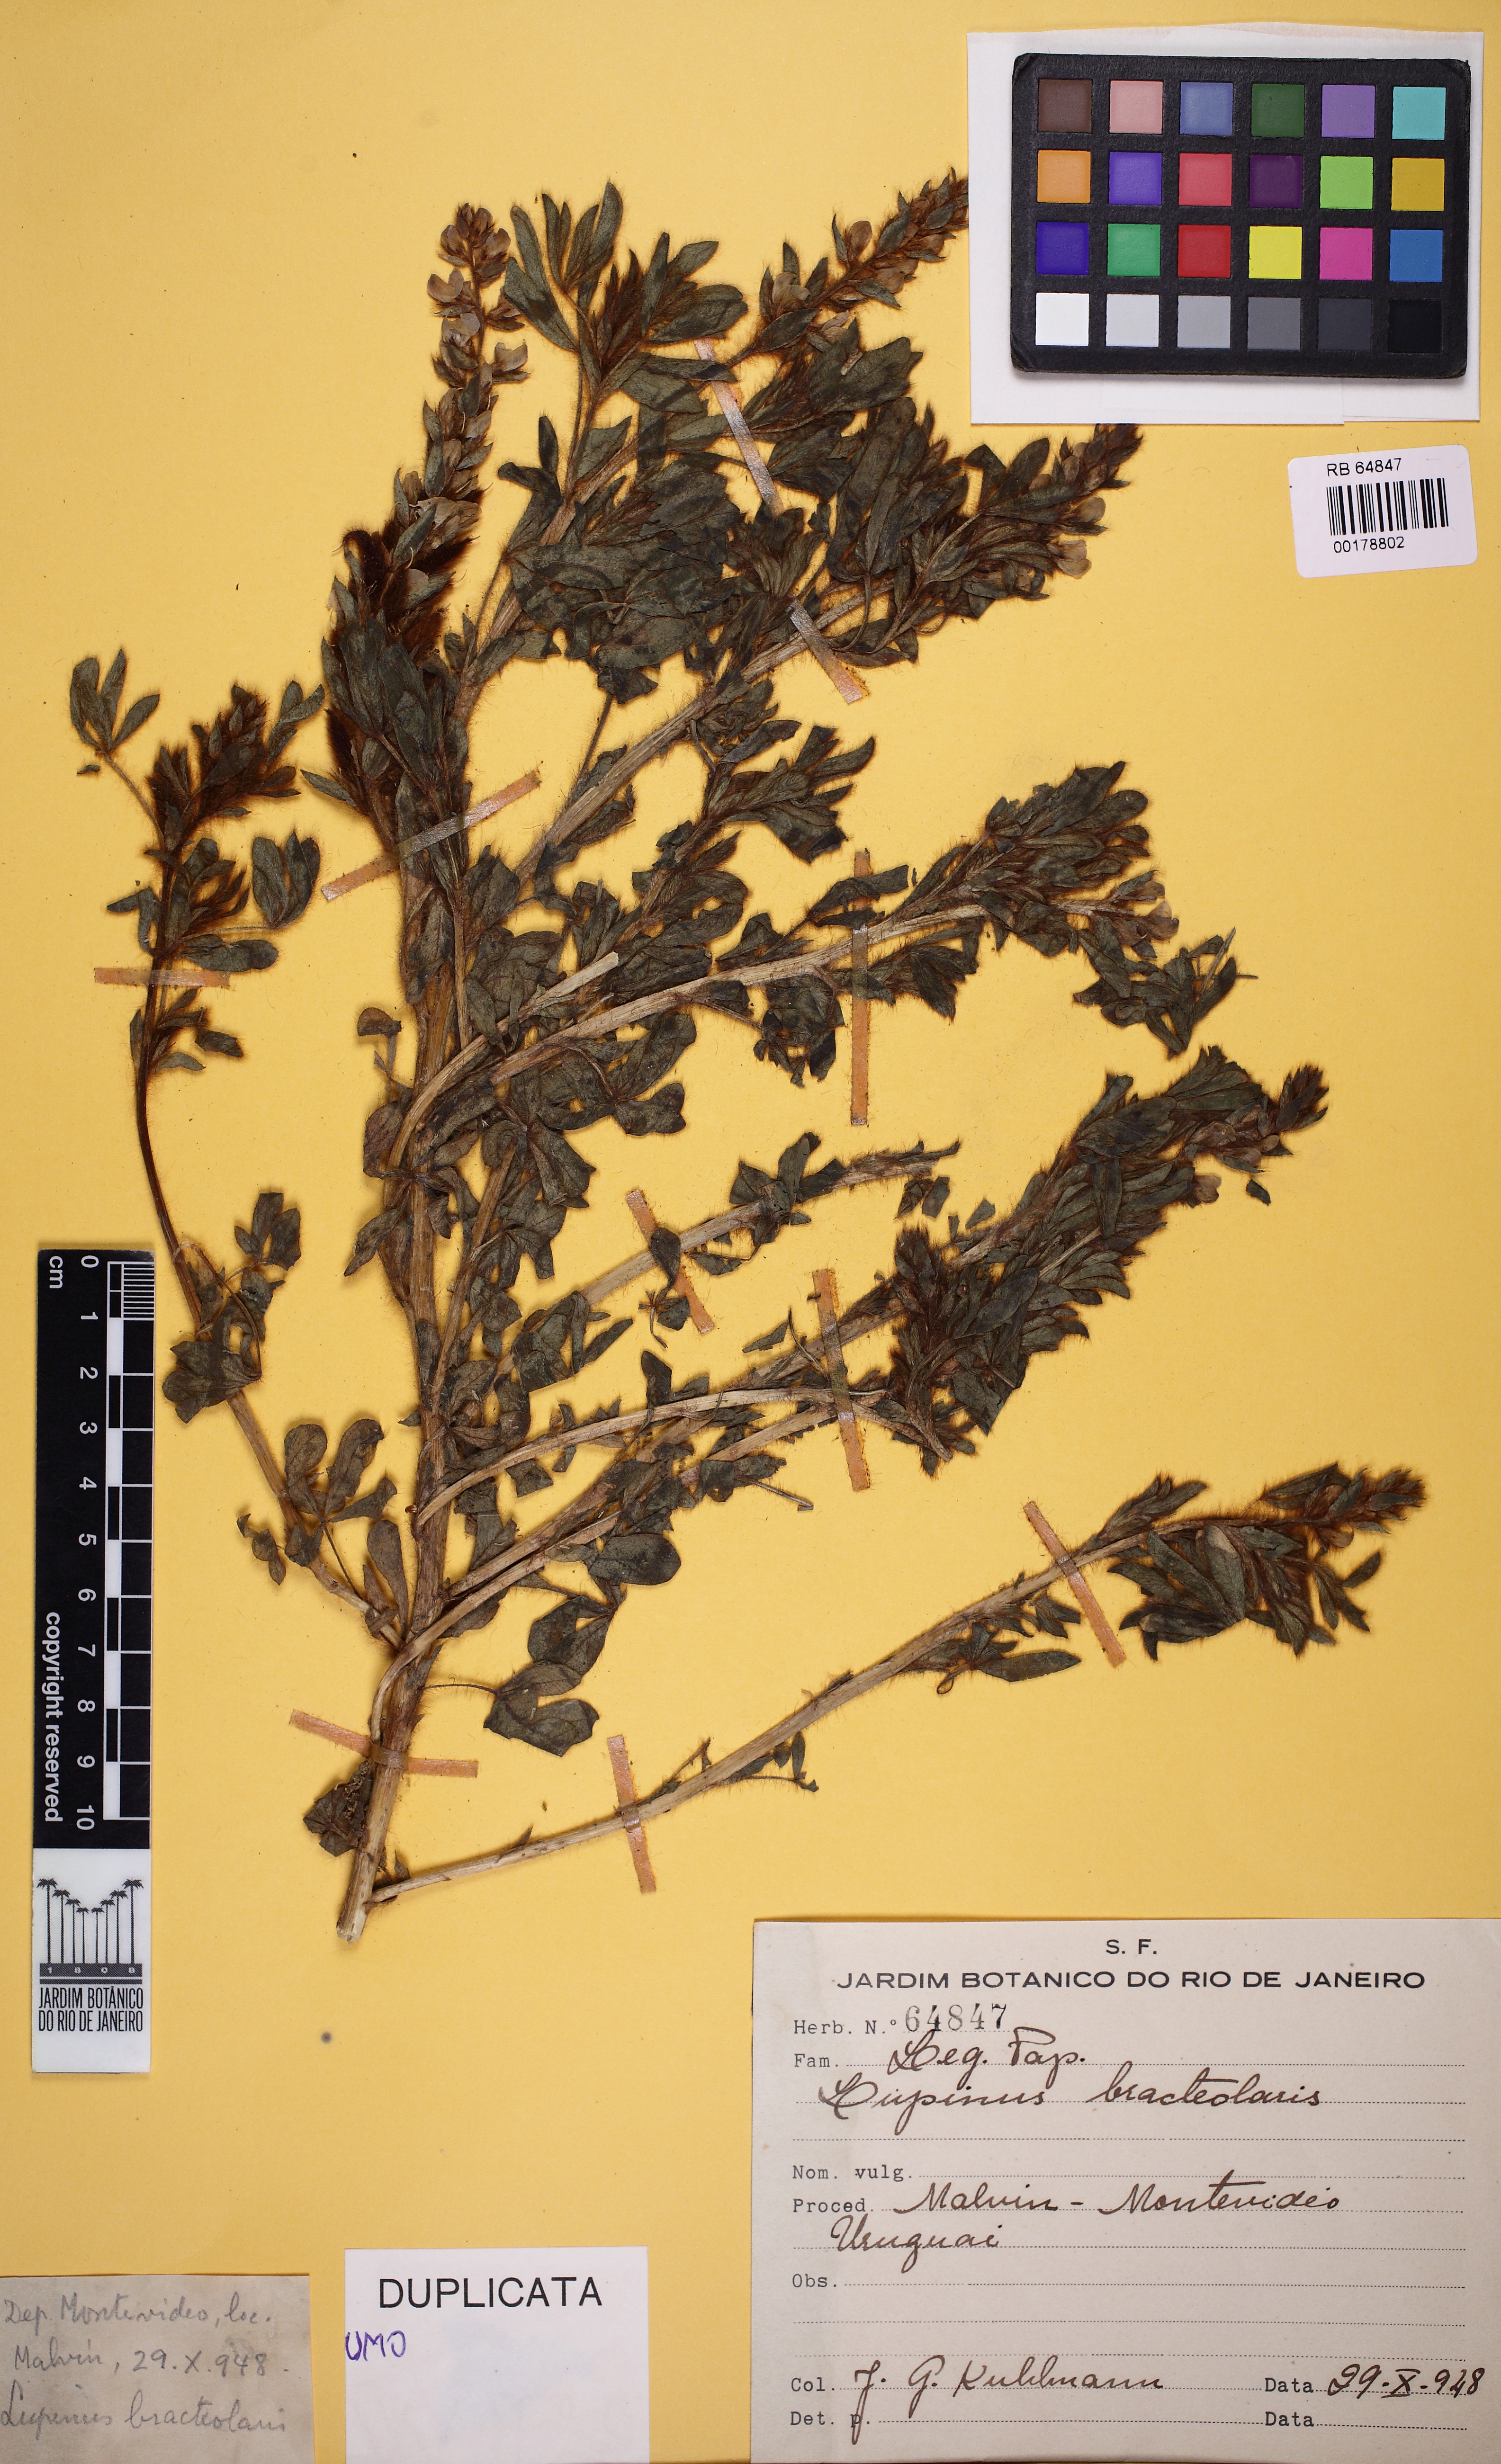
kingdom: Plantae
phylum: Tracheophyta
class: Magnoliopsida
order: Fabales
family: Fabaceae
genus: Lupinus
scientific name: Lupinus bracteolaris
